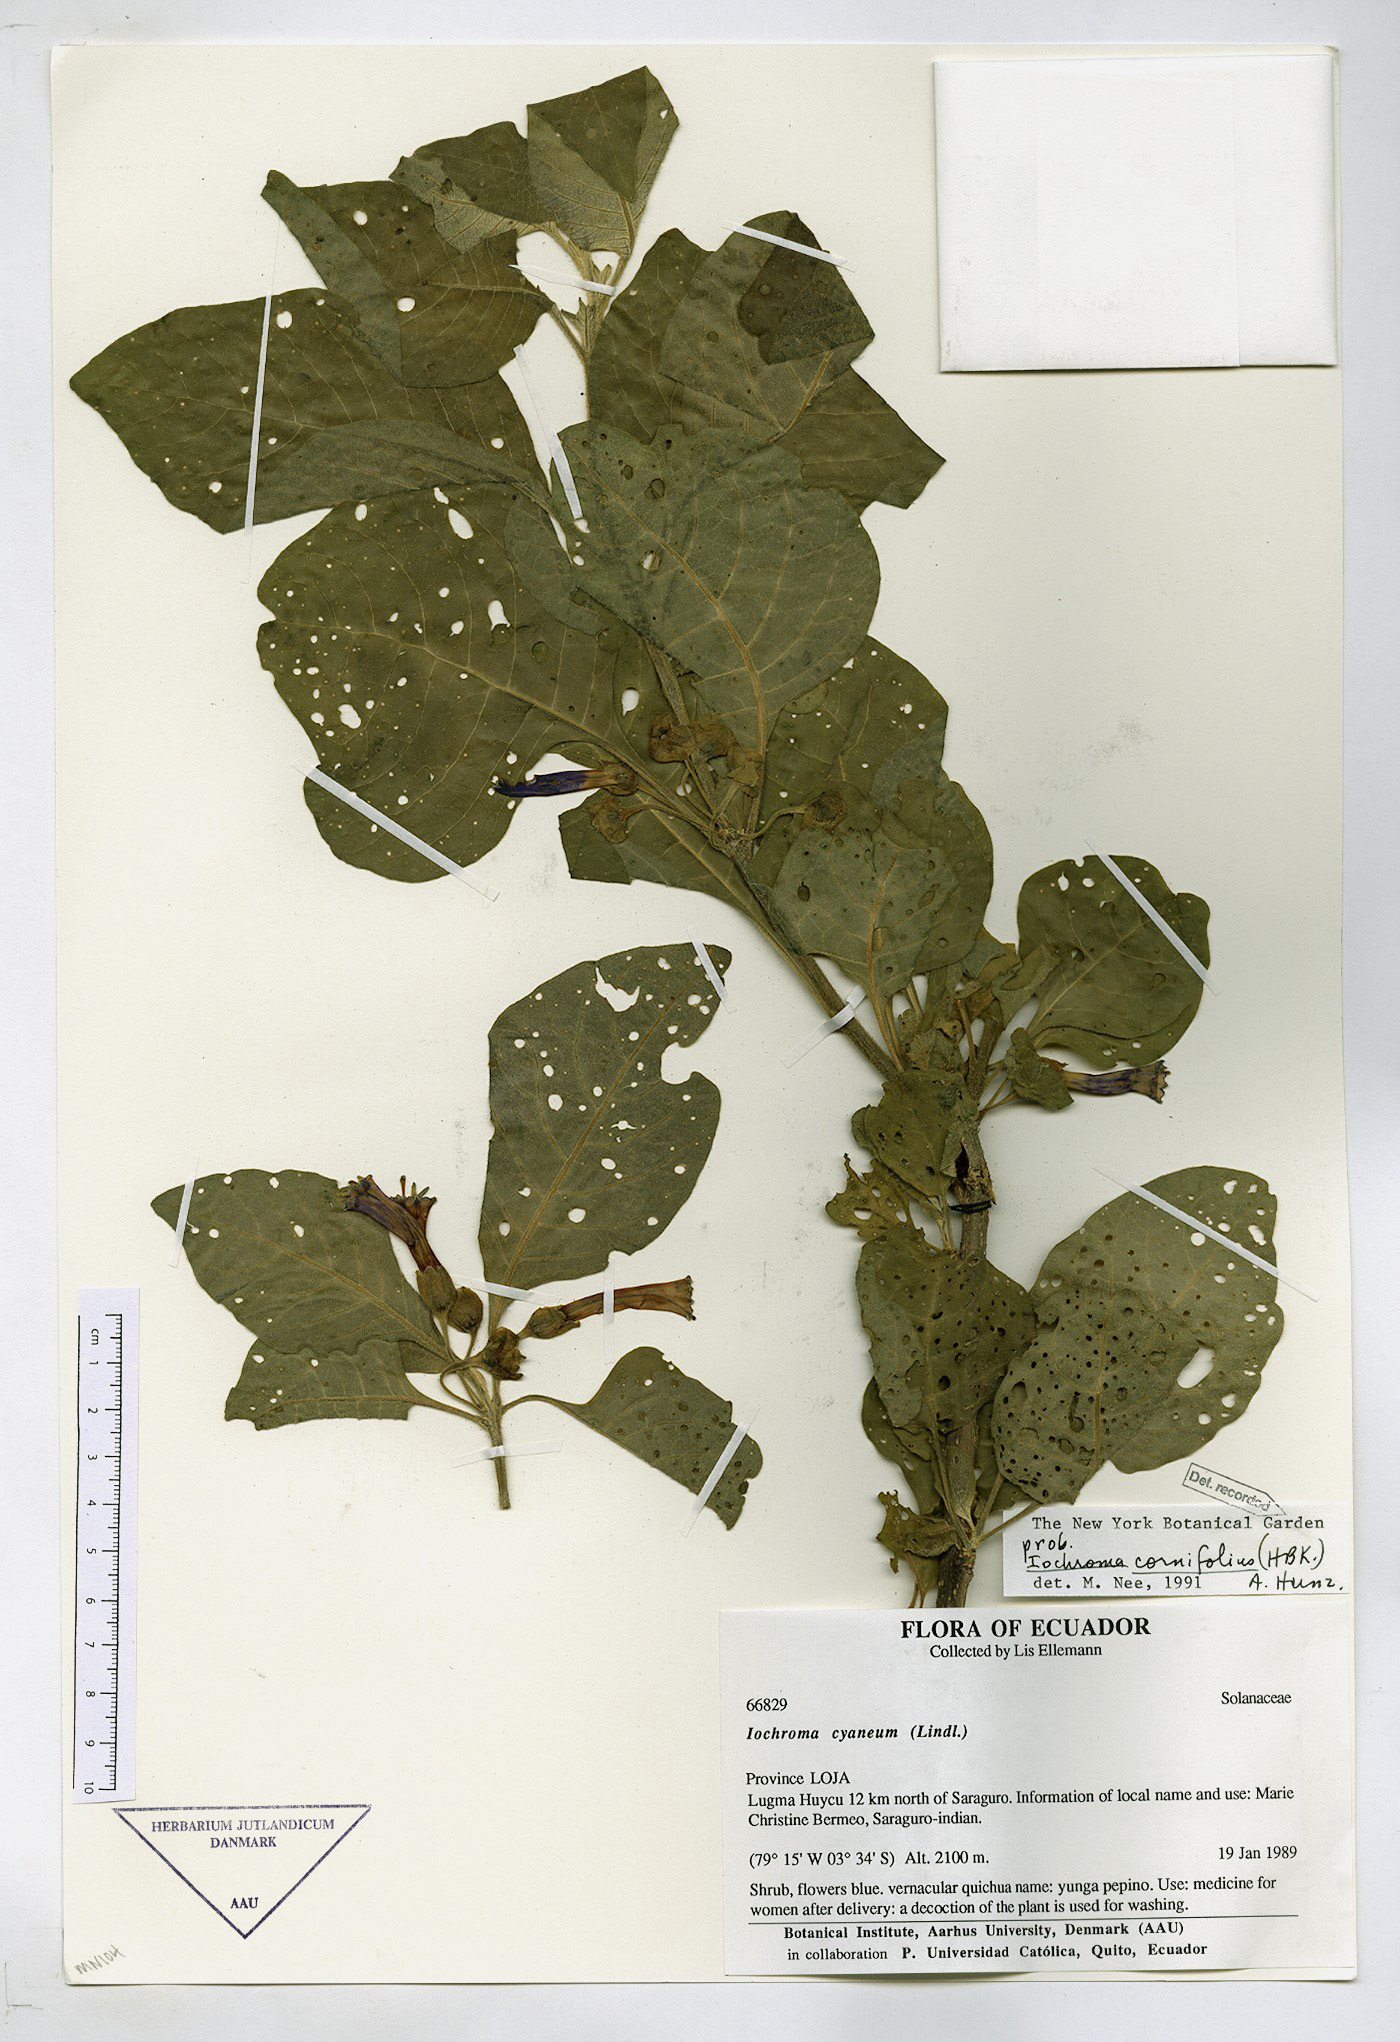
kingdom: Plantae
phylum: Tracheophyta
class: Magnoliopsida
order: Solanales
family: Solanaceae
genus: Iochroma
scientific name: Iochroma cornifolium
